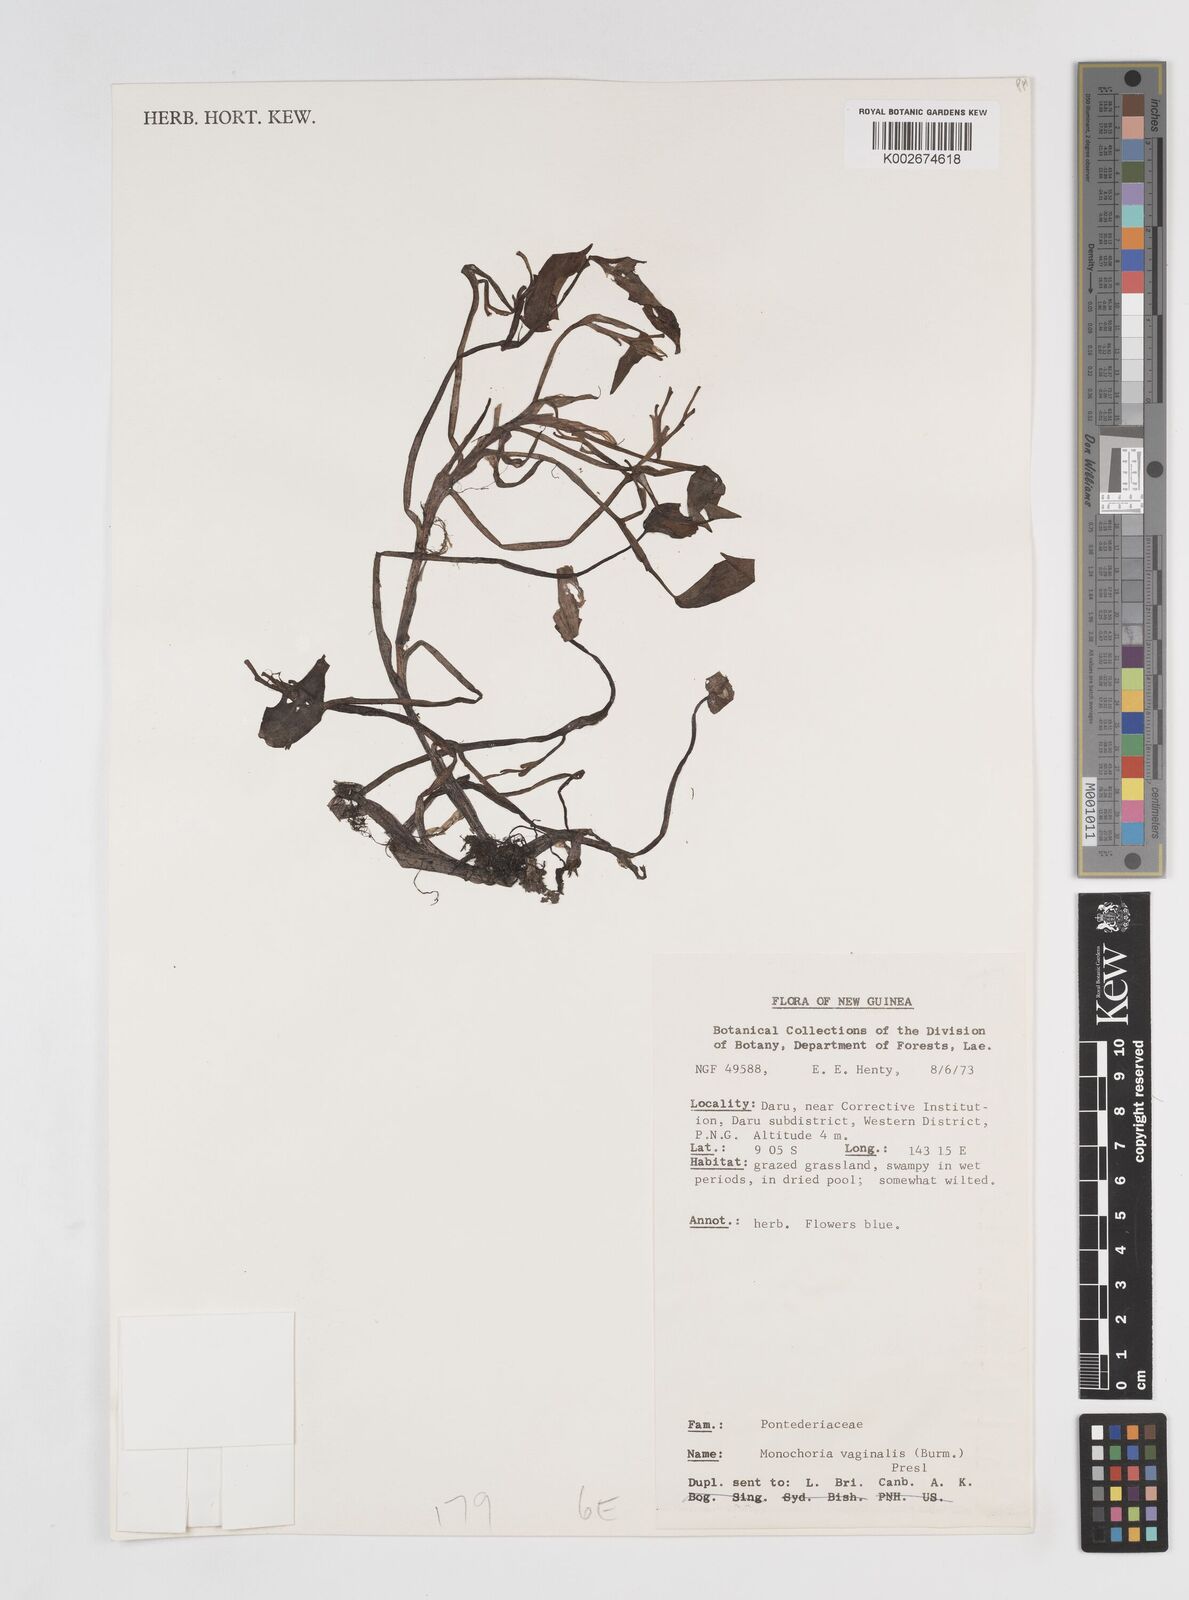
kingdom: Plantae
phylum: Tracheophyta
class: Liliopsida
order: Commelinales
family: Pontederiaceae
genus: Pontederia
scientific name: Pontederia vaginalis
